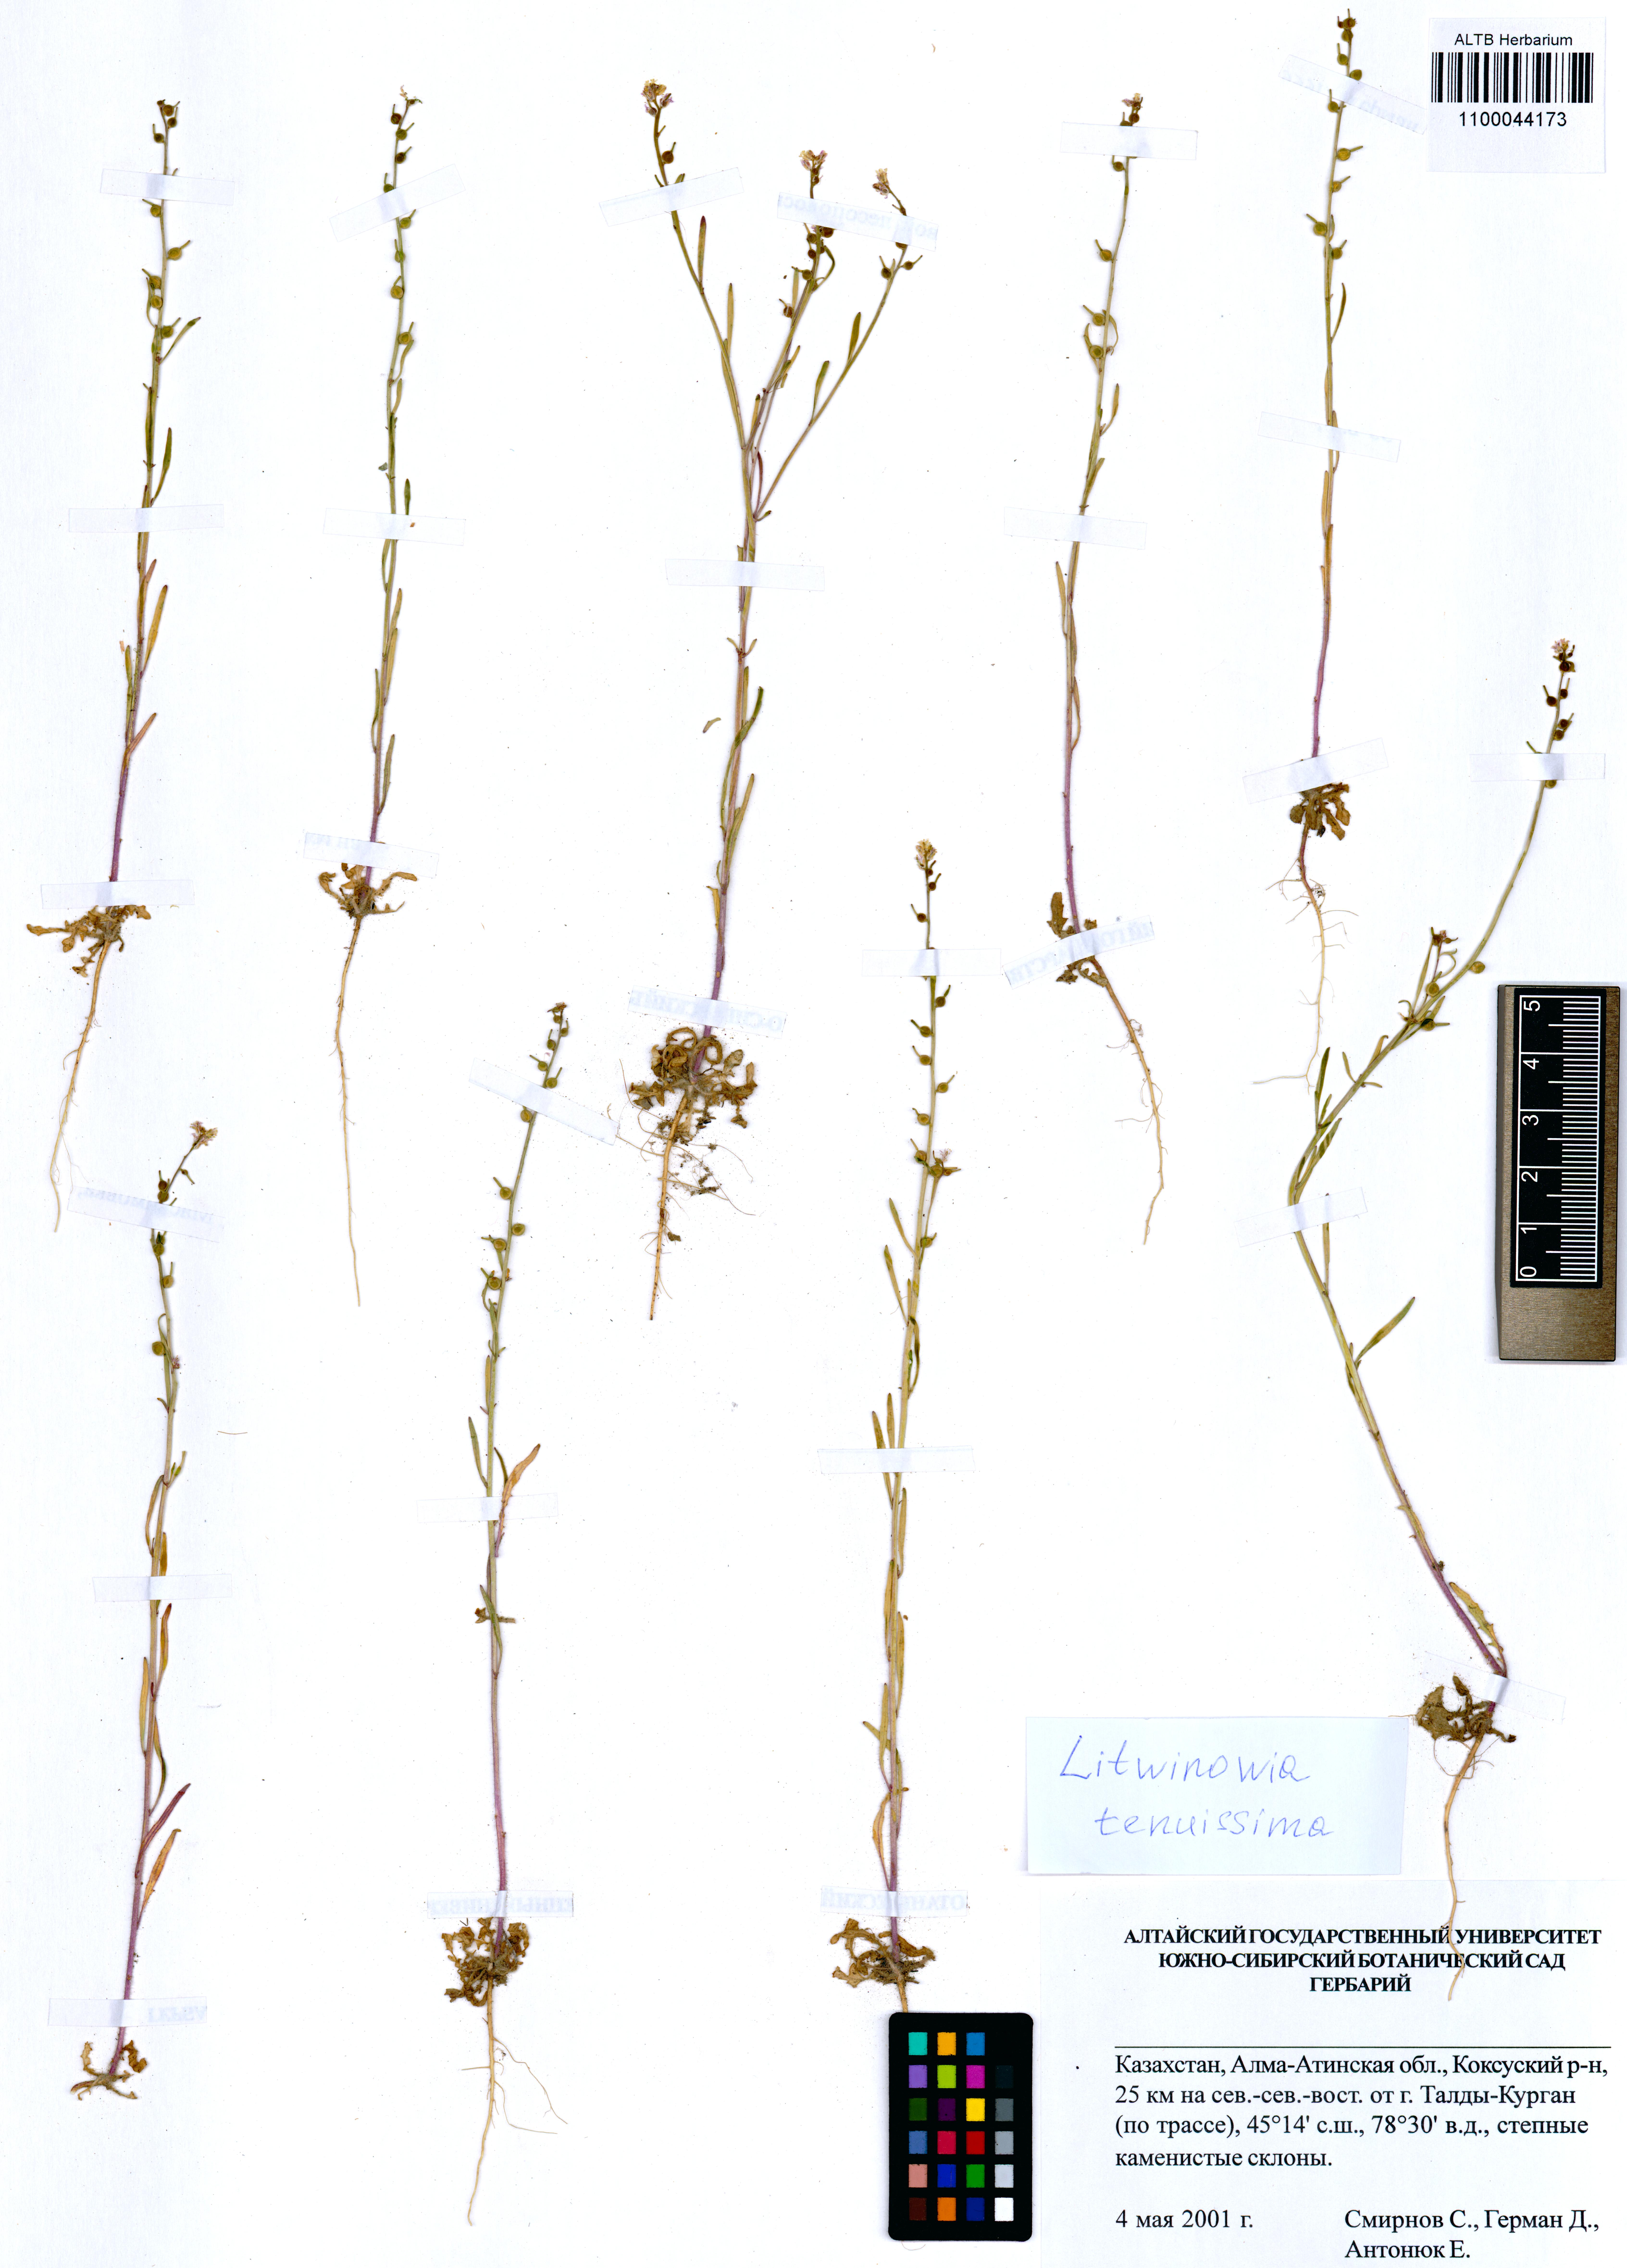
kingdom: Plantae
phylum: Tracheophyta
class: Magnoliopsida
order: Brassicales
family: Brassicaceae
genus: Litwinowia
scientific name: Litwinowia tenuissima
